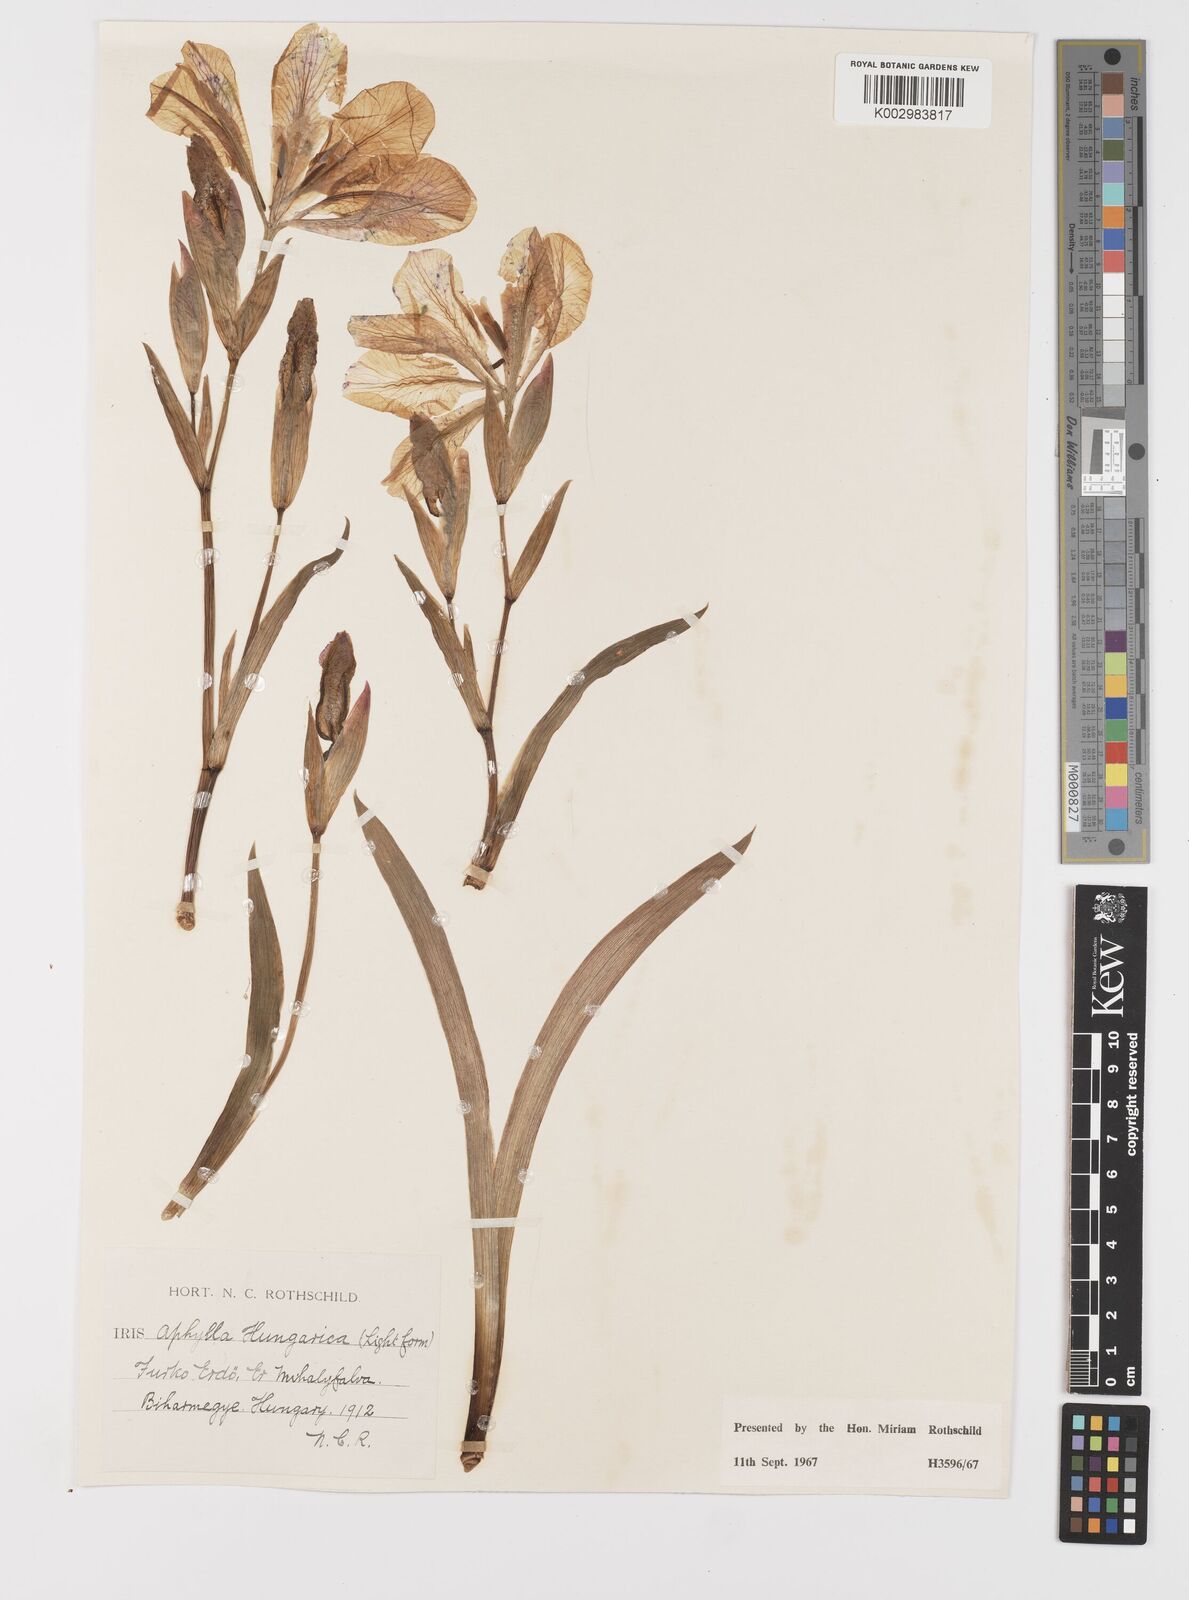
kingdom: Plantae
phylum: Tracheophyta
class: Liliopsida
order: Asparagales
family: Iridaceae
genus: Iris
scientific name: Iris aphylla
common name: Stool iris
